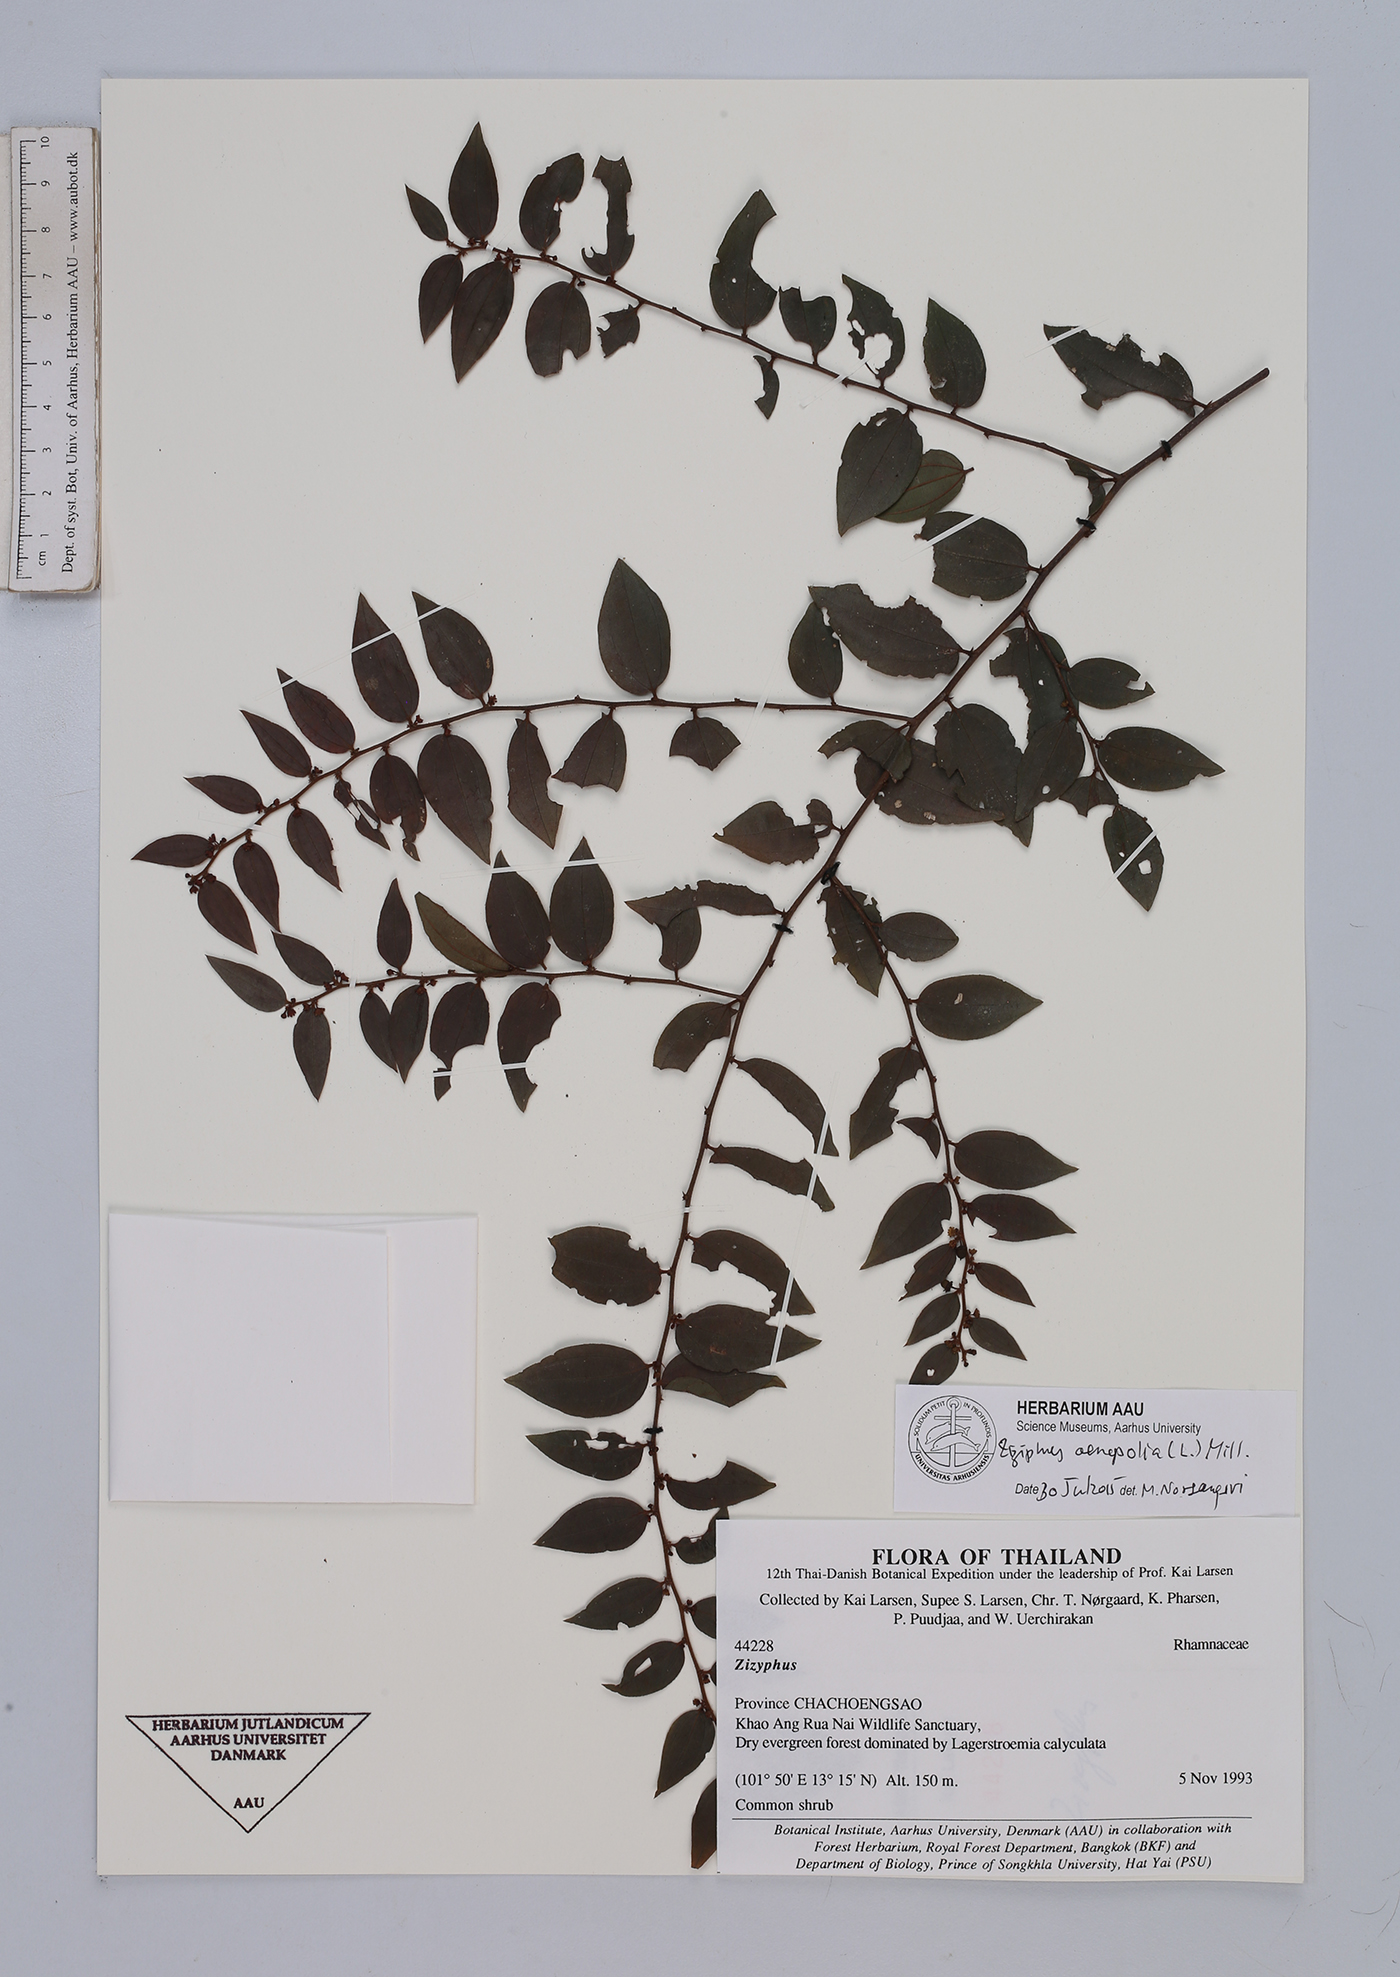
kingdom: Plantae
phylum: Tracheophyta
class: Magnoliopsida
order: Rosales
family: Rhamnaceae
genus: Ziziphus
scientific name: Ziziphus oenopolia
